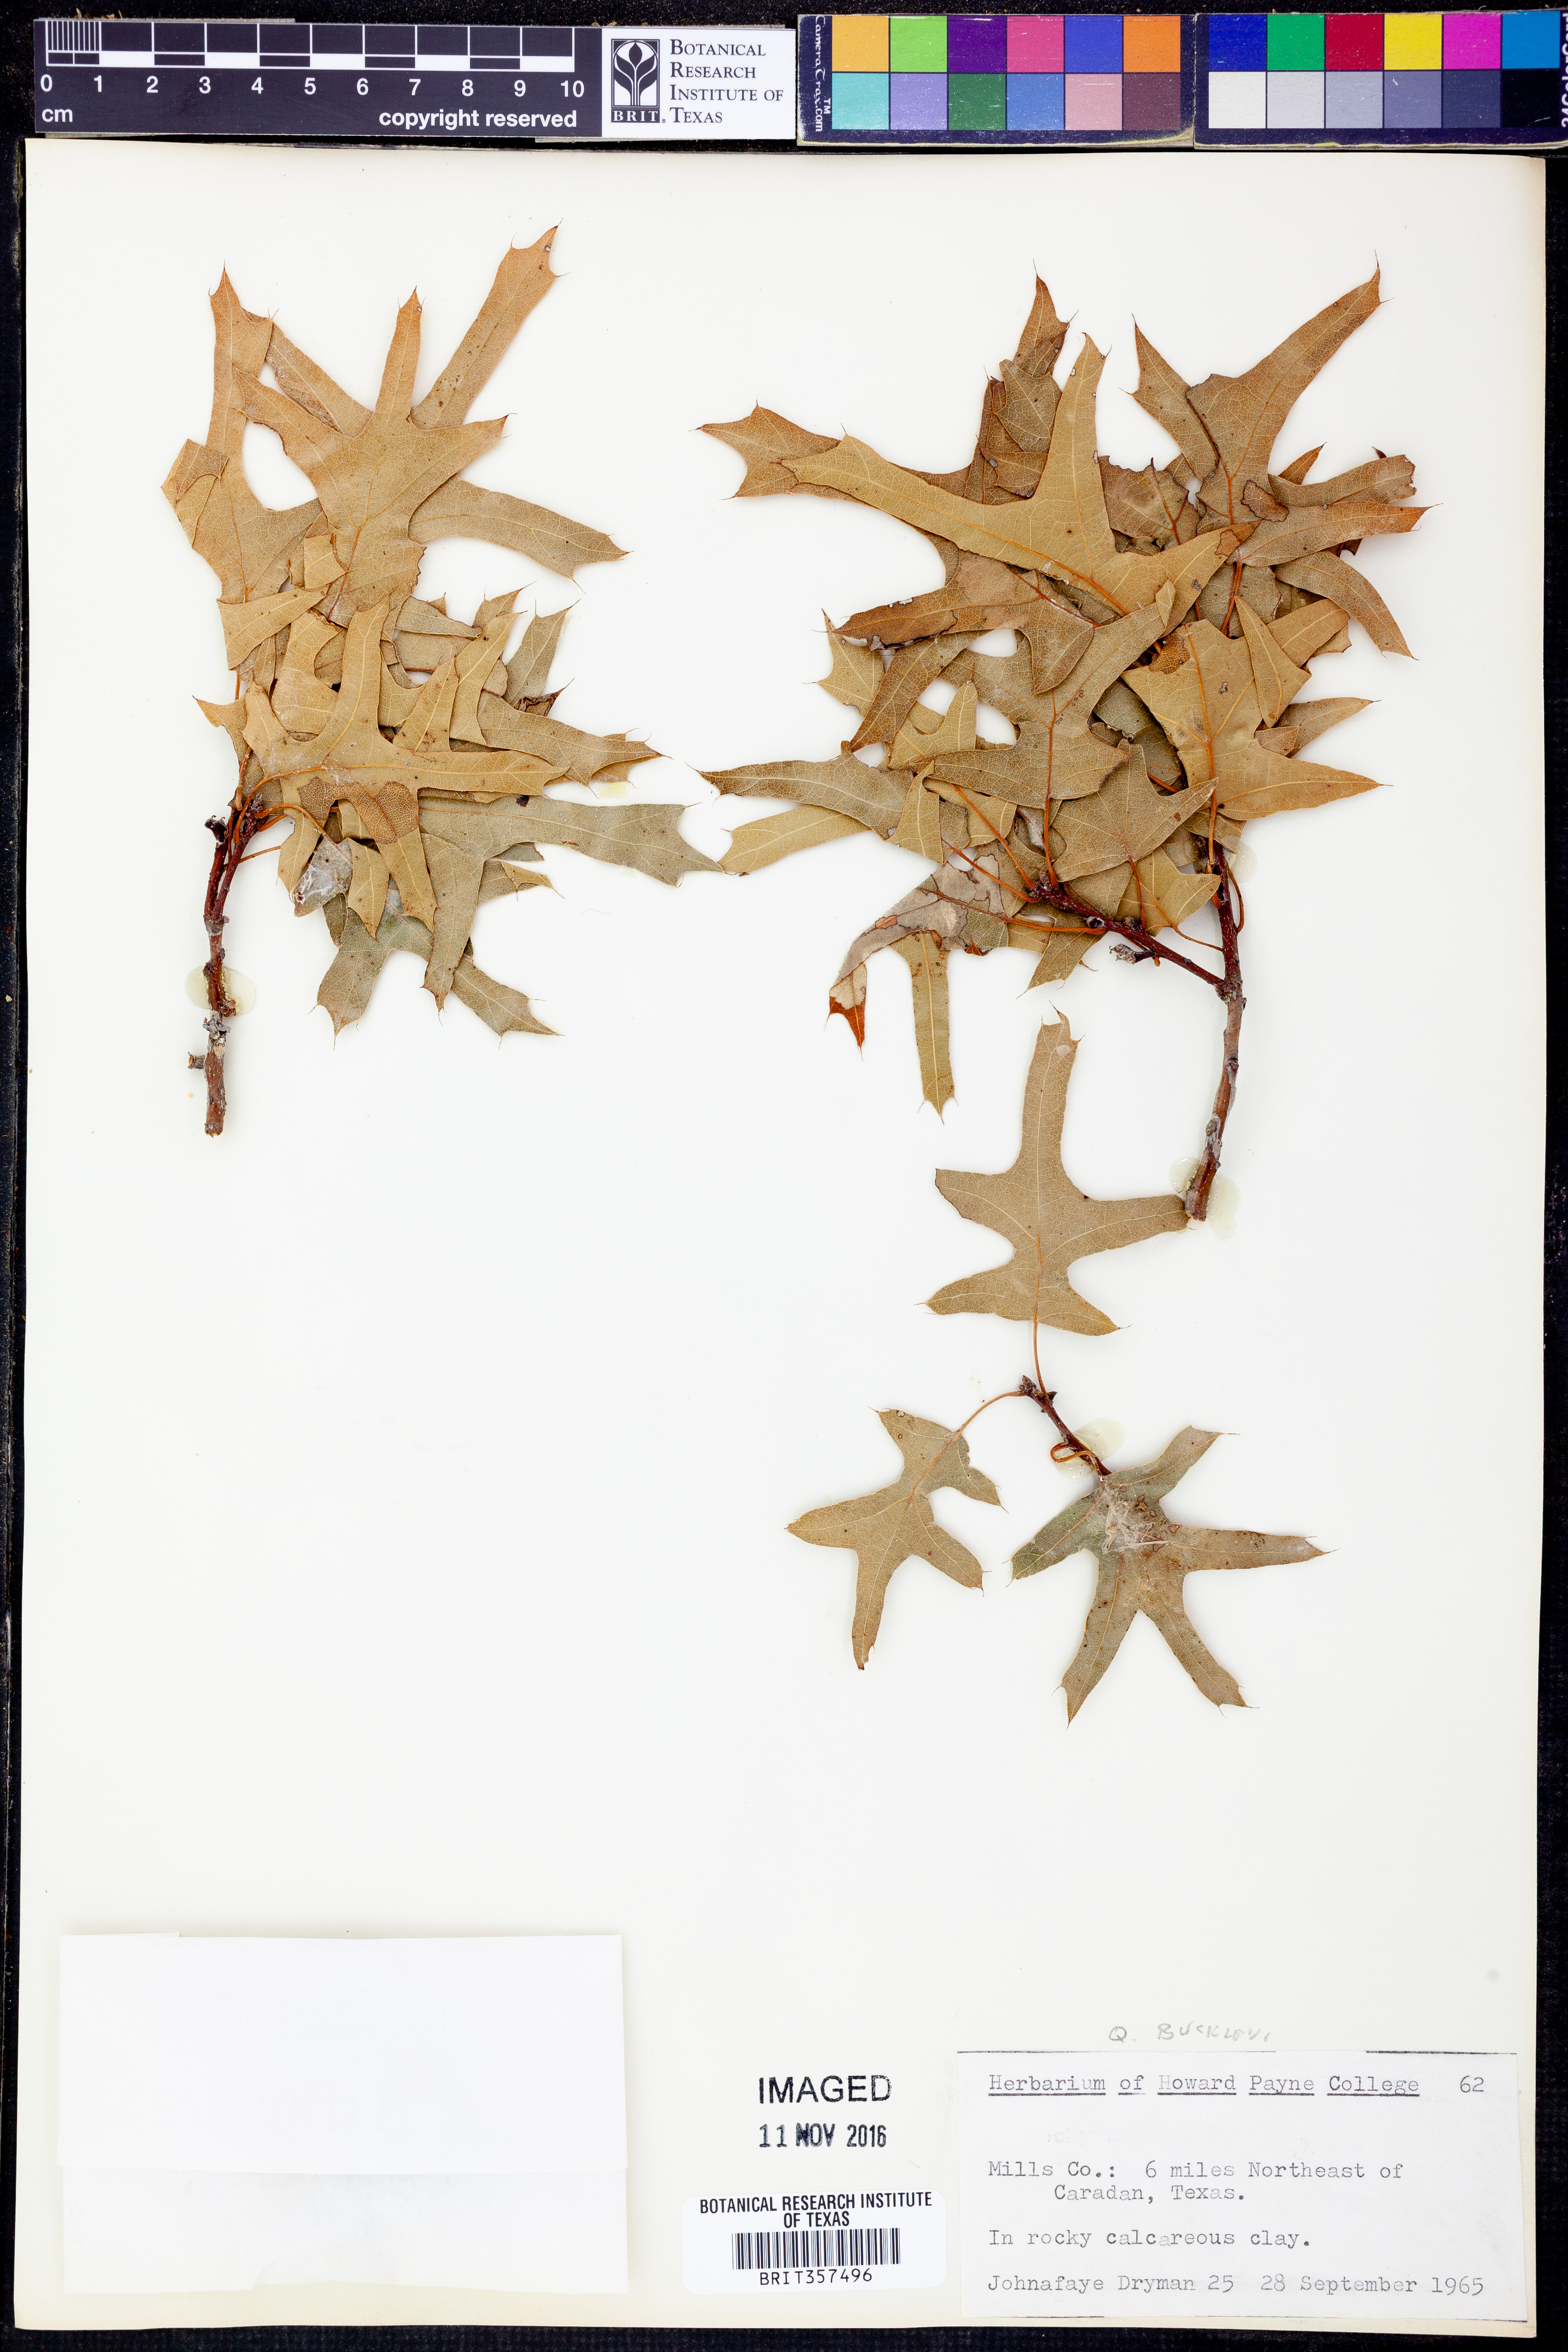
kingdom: Plantae
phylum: Tracheophyta
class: Magnoliopsida
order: Fagales
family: Fagaceae
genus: Quercus
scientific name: Quercus buckleyi
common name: Buckley oak
